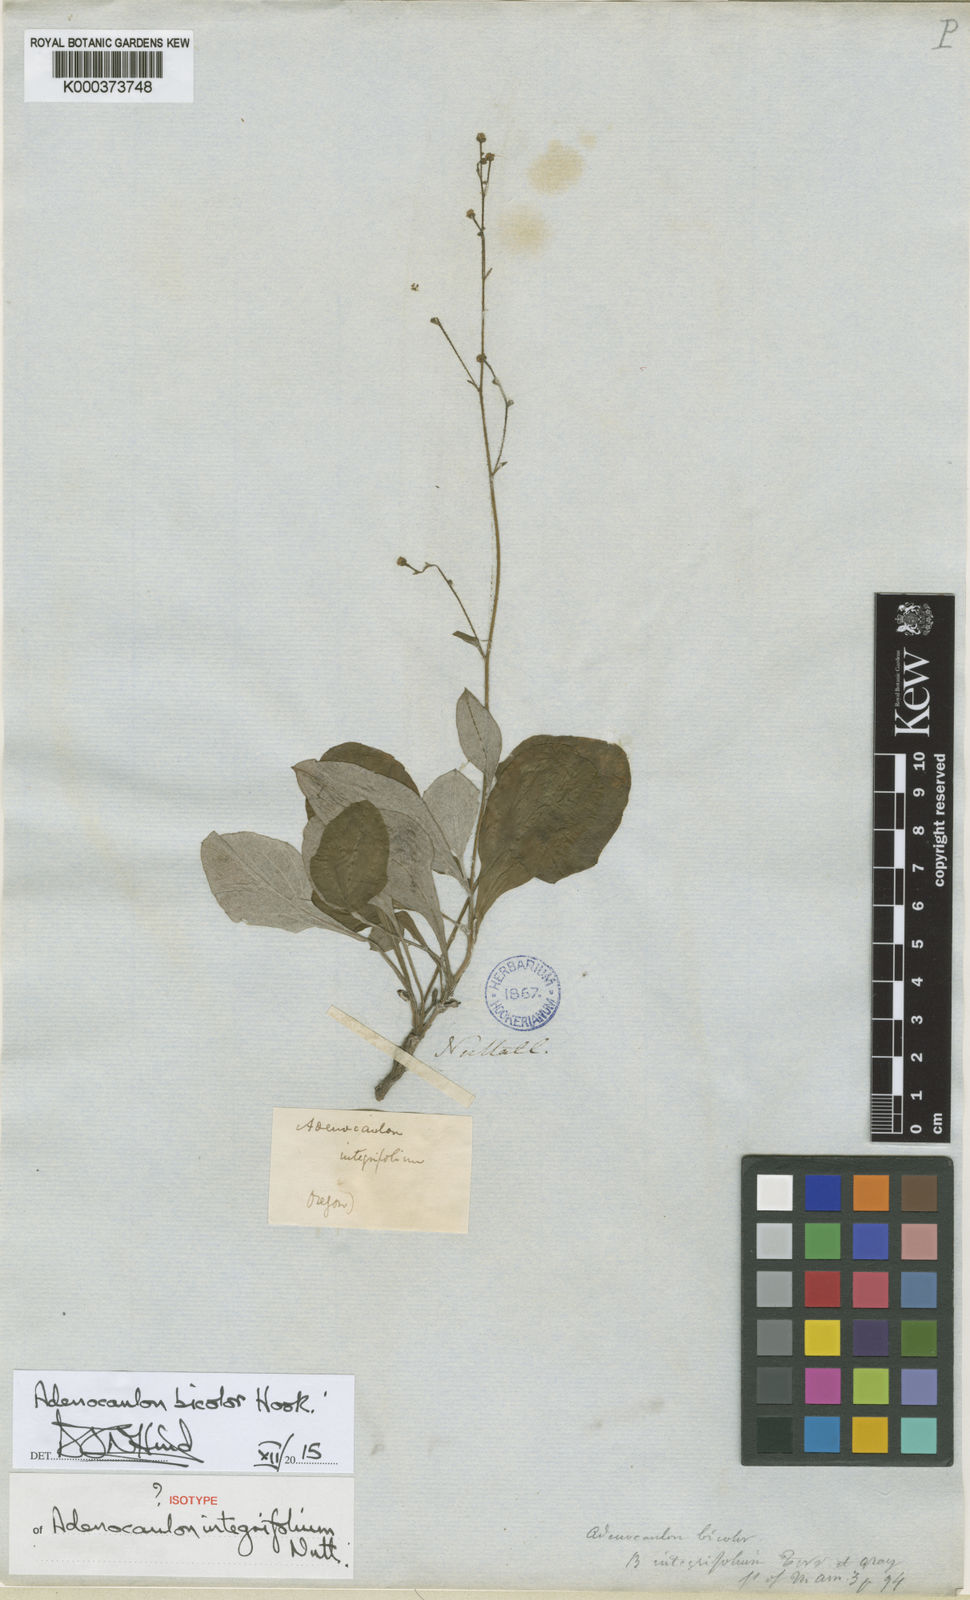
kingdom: Plantae
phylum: Tracheophyta
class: Magnoliopsida
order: Asterales
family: Asteraceae
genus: Adenocaulon
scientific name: Adenocaulon bicolor
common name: Trailplant
